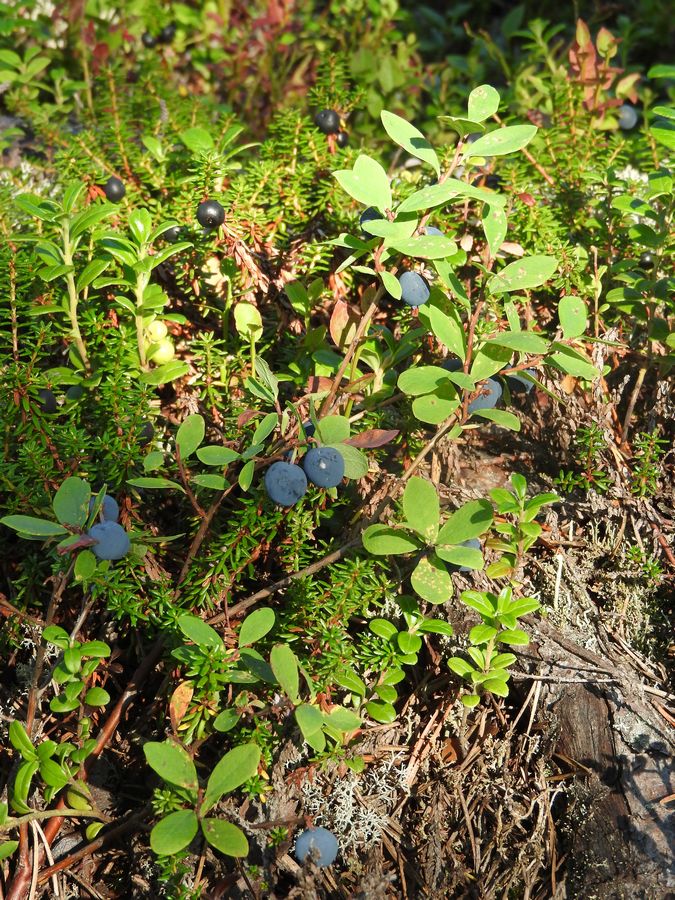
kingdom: Plantae
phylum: Tracheophyta
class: Magnoliopsida
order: Ericales
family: Ericaceae
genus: Vaccinium
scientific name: Vaccinium uliginosum
